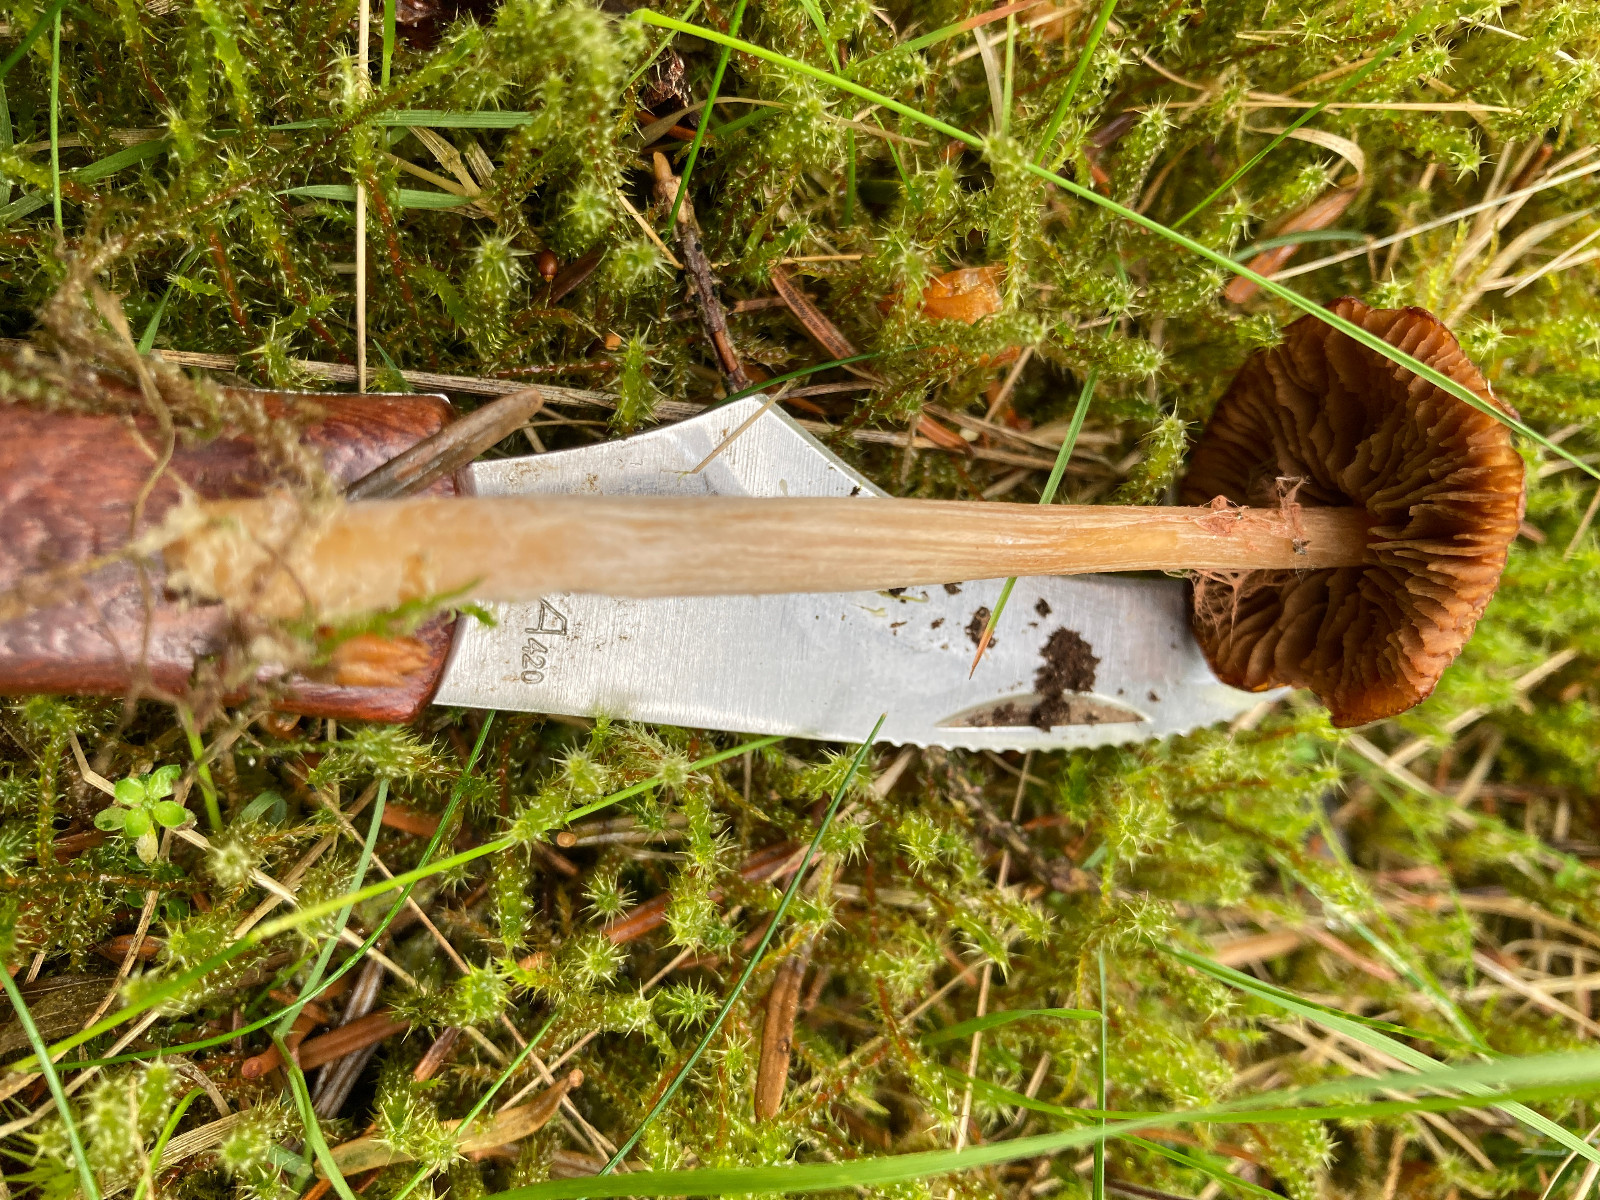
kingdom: Fungi
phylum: Basidiomycota
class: Agaricomycetes
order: Agaricales
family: Entolomataceae
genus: Entoloma
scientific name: Entoloma cuneatum
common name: dunstokket rødblad
